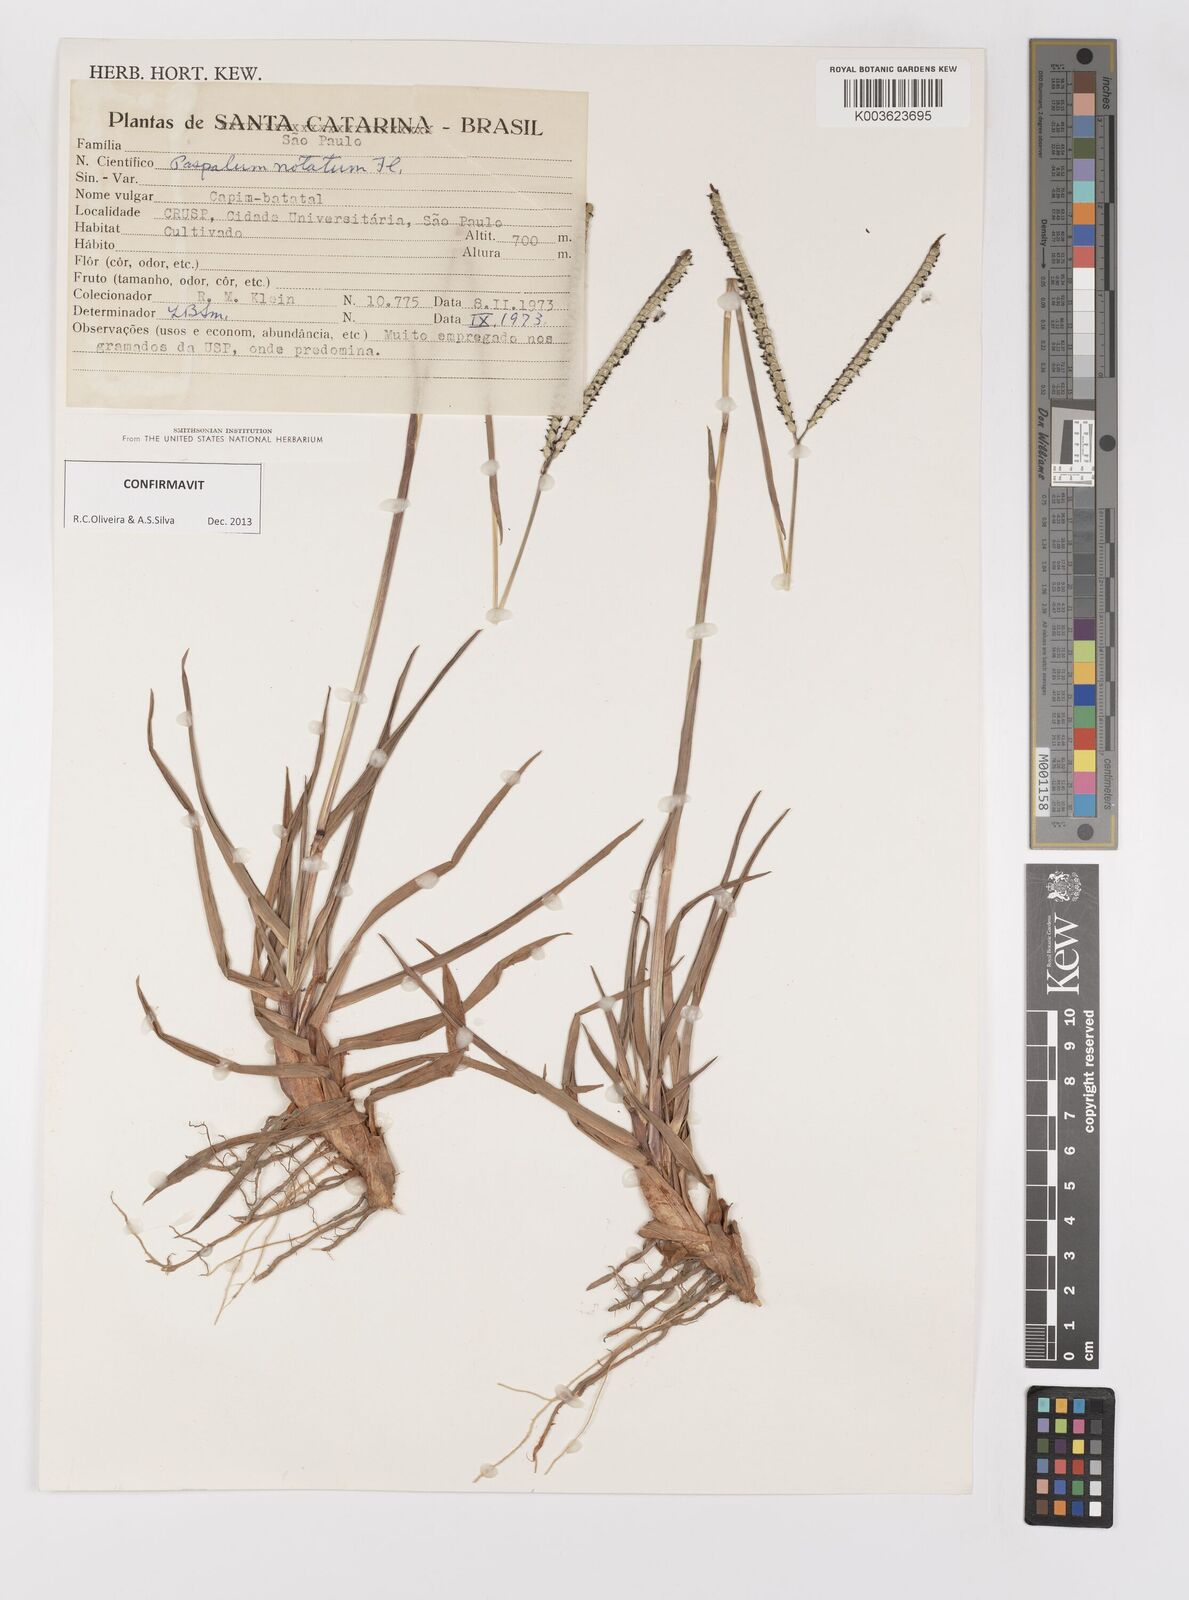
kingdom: Plantae
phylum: Tracheophyta
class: Liliopsida
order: Poales
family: Poaceae
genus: Paspalum
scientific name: Paspalum notatum
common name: Bahiagrass
